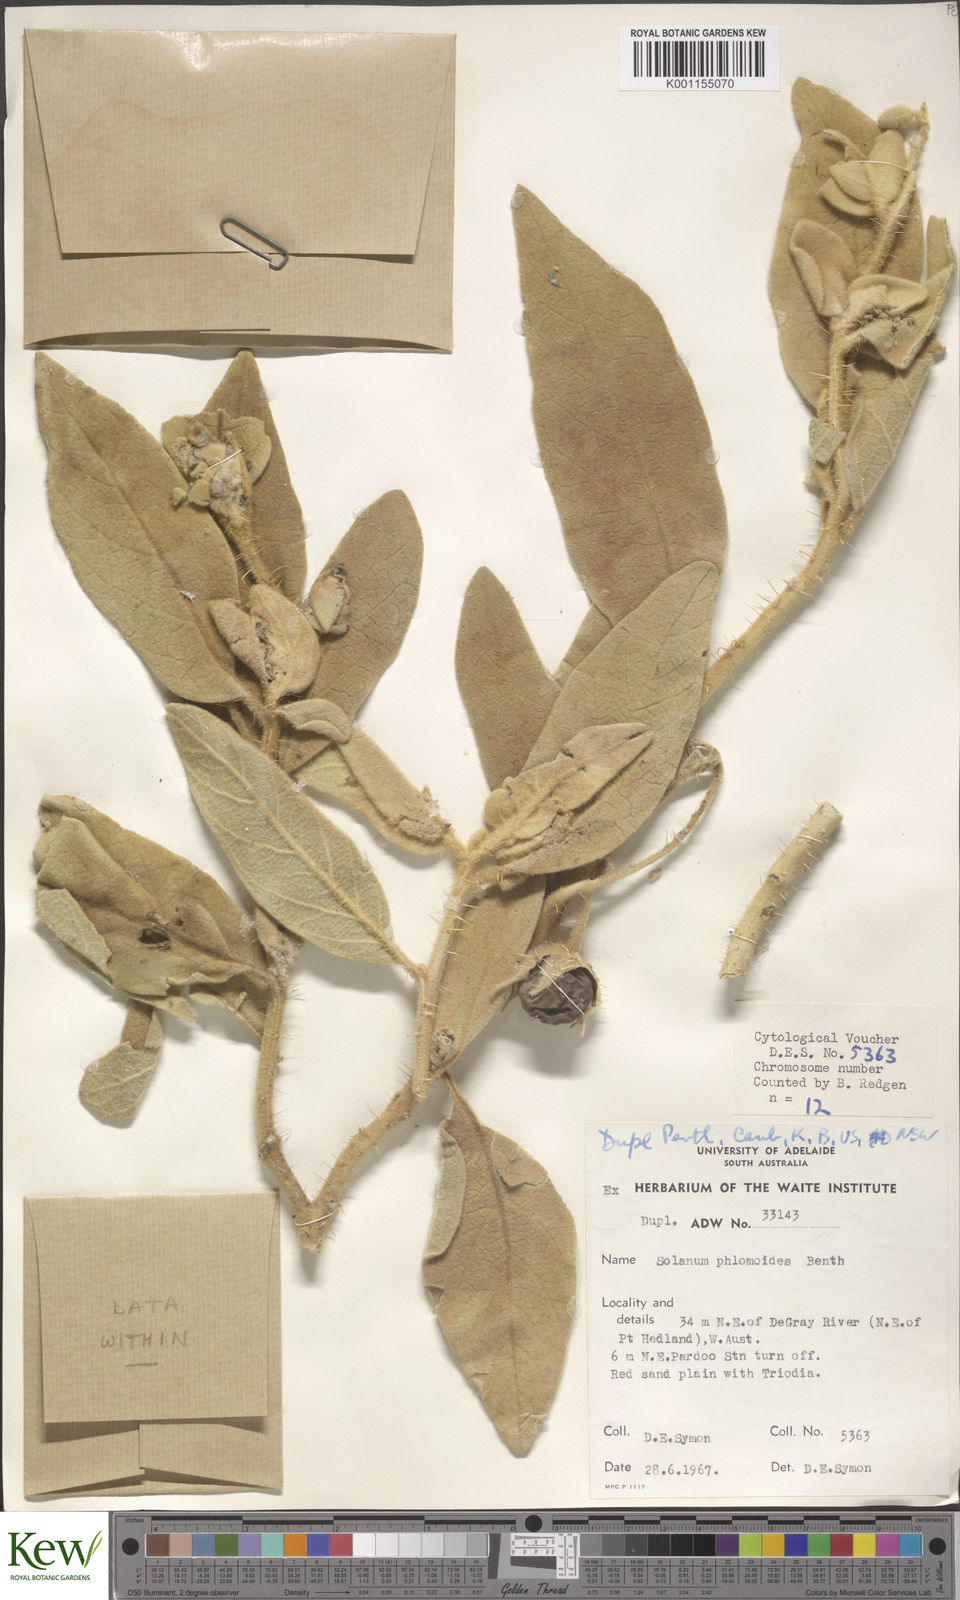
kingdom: Plantae
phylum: Tracheophyta
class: Magnoliopsida
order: Solanales
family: Solanaceae
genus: Solanum
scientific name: Solanum phlomoides
